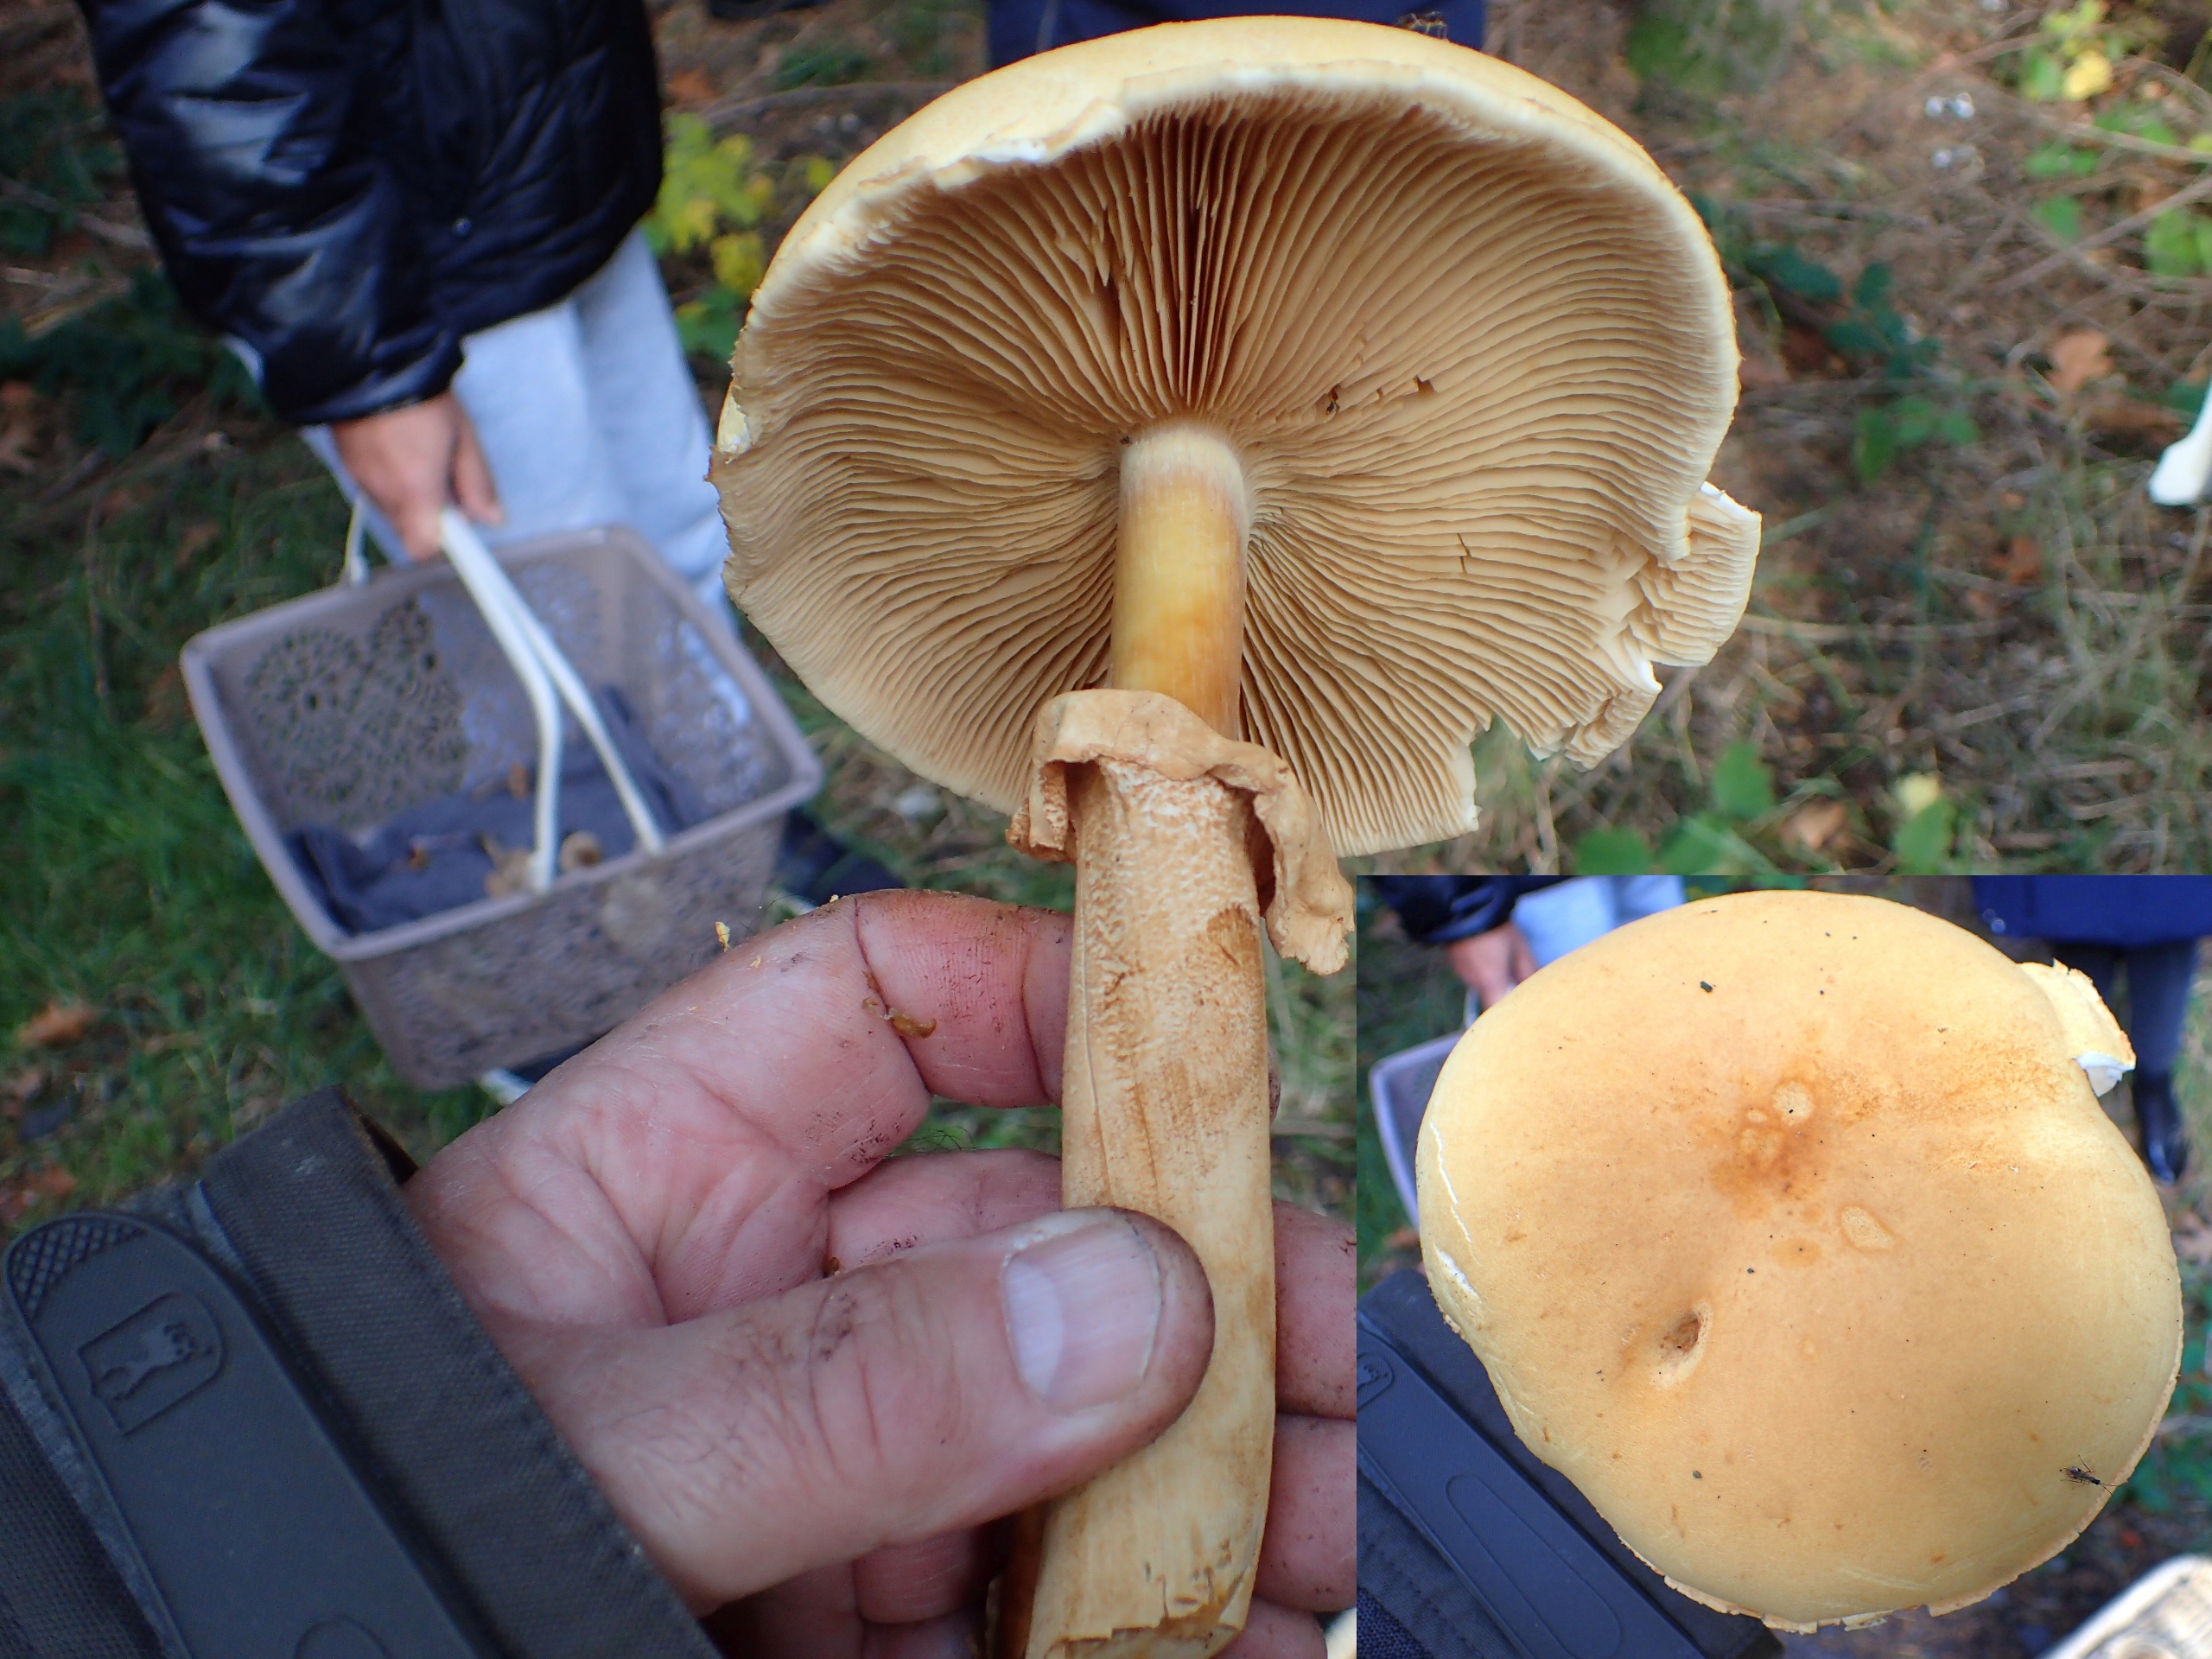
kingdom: Fungi
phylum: Basidiomycota
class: Agaricomycetes
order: Agaricales
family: Tricholomataceae
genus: Phaeolepiota
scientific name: Phaeolepiota aurea
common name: Gyldenhat
